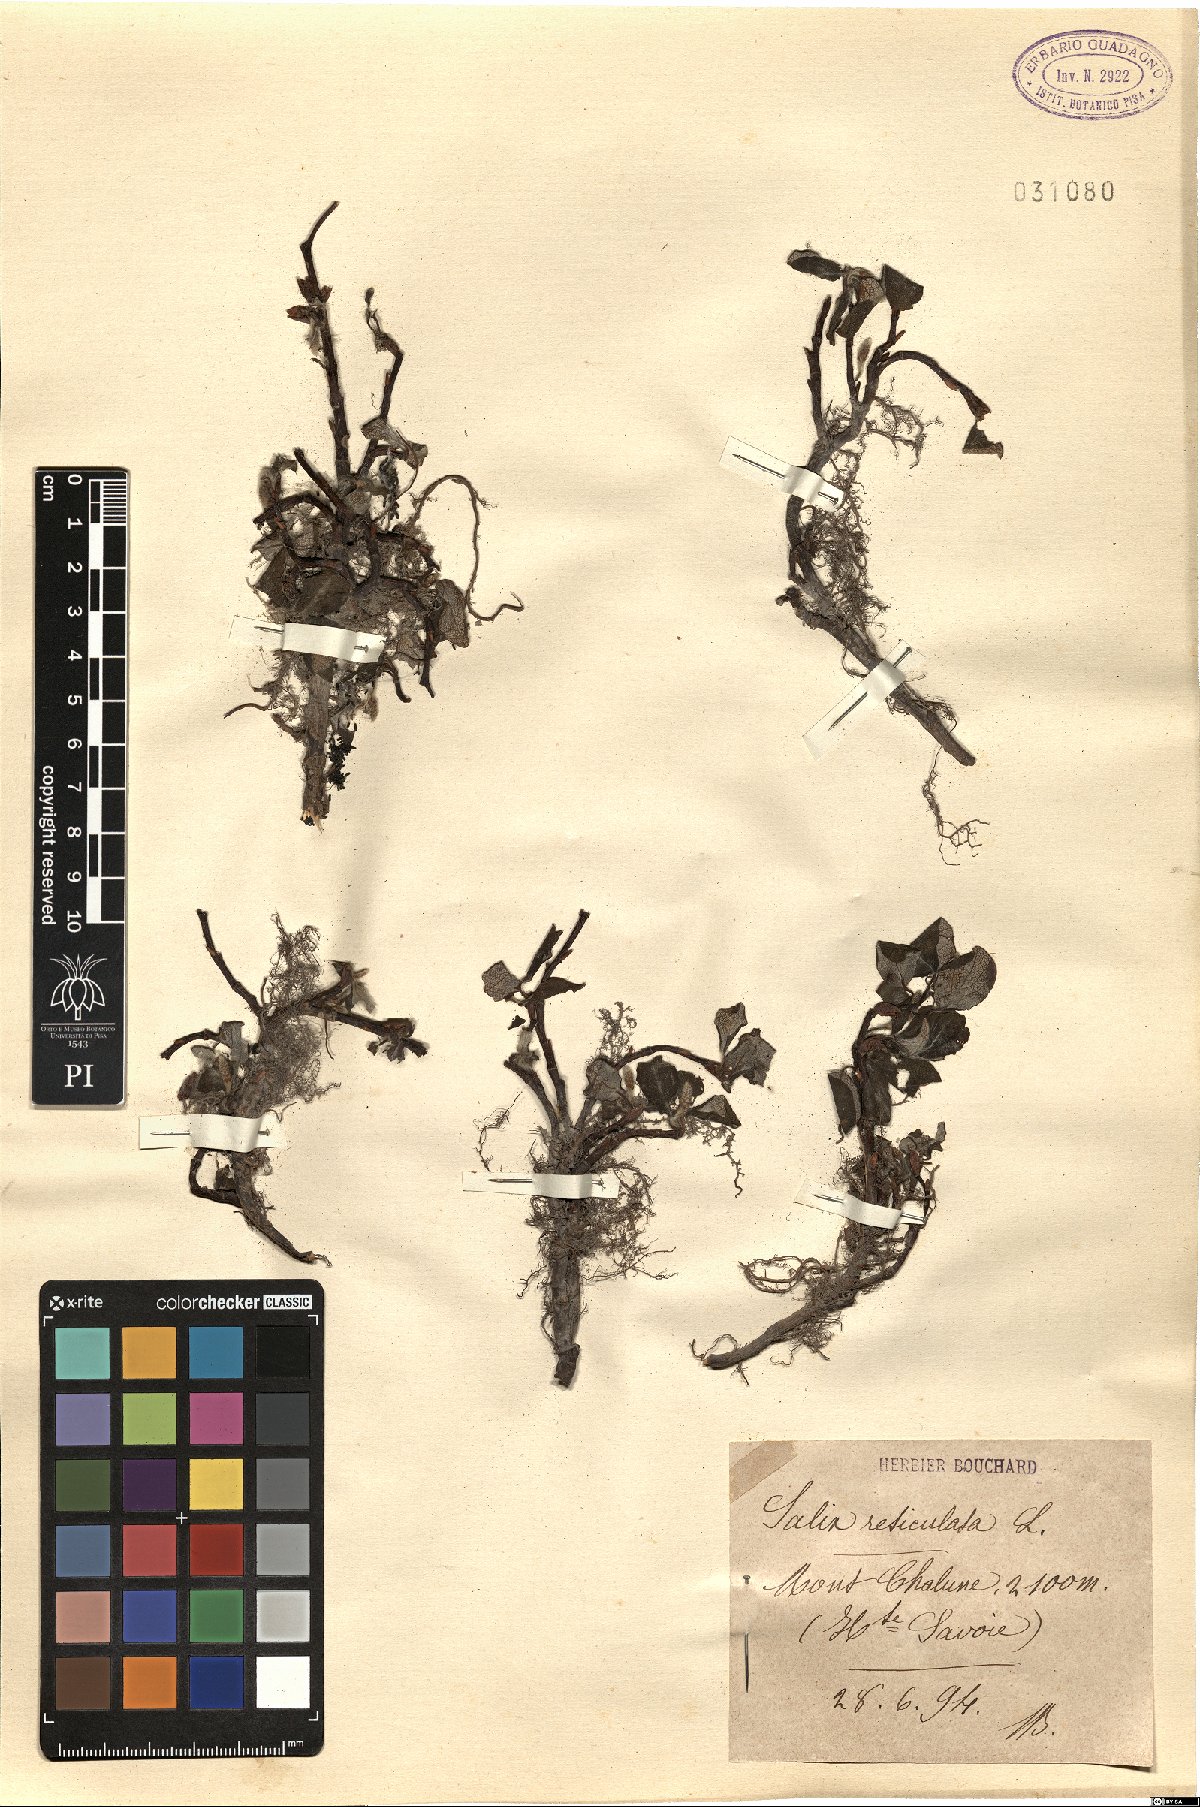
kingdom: Plantae
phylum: Tracheophyta
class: Magnoliopsida
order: Malpighiales
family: Salicaceae
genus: Salix
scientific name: Salix reticulata
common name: Net-leaved willow
